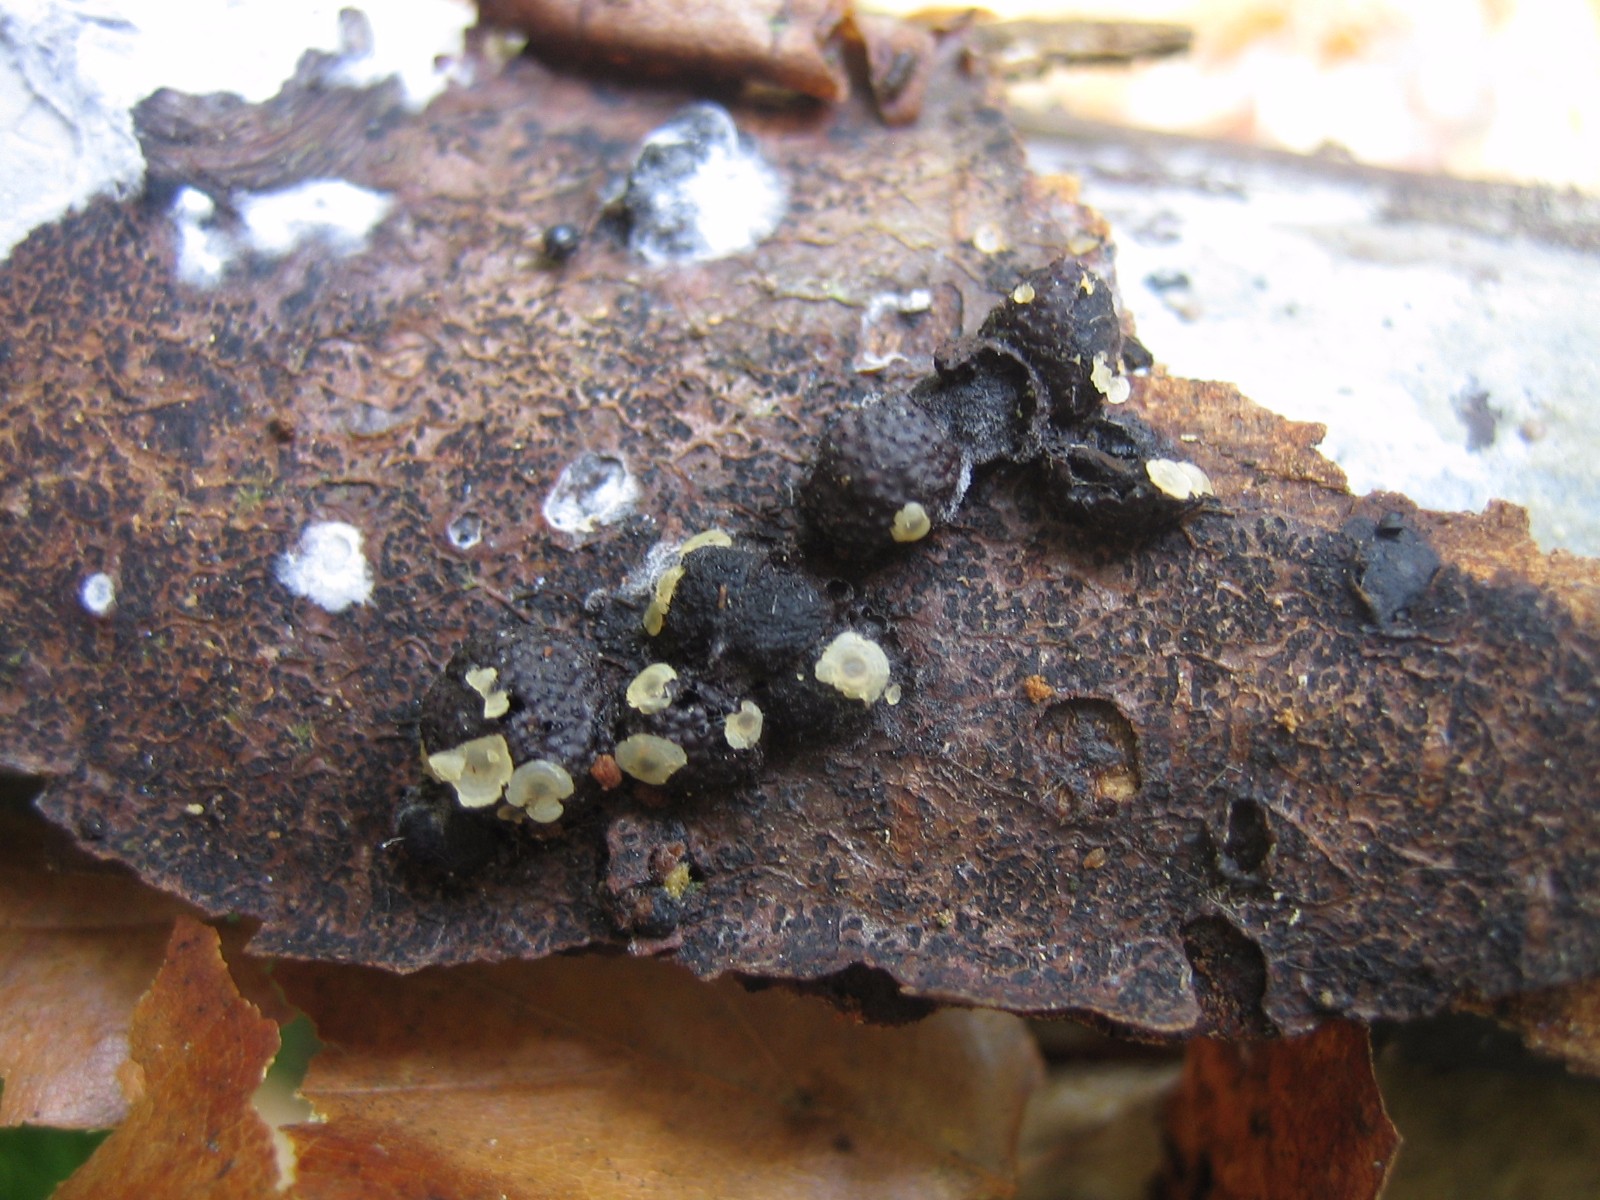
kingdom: Fungi
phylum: Ascomycota
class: Orbiliomycetes
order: Orbiliales
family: Orbiliaceae
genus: Hyalorbilia
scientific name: Hyalorbilia inflatula
